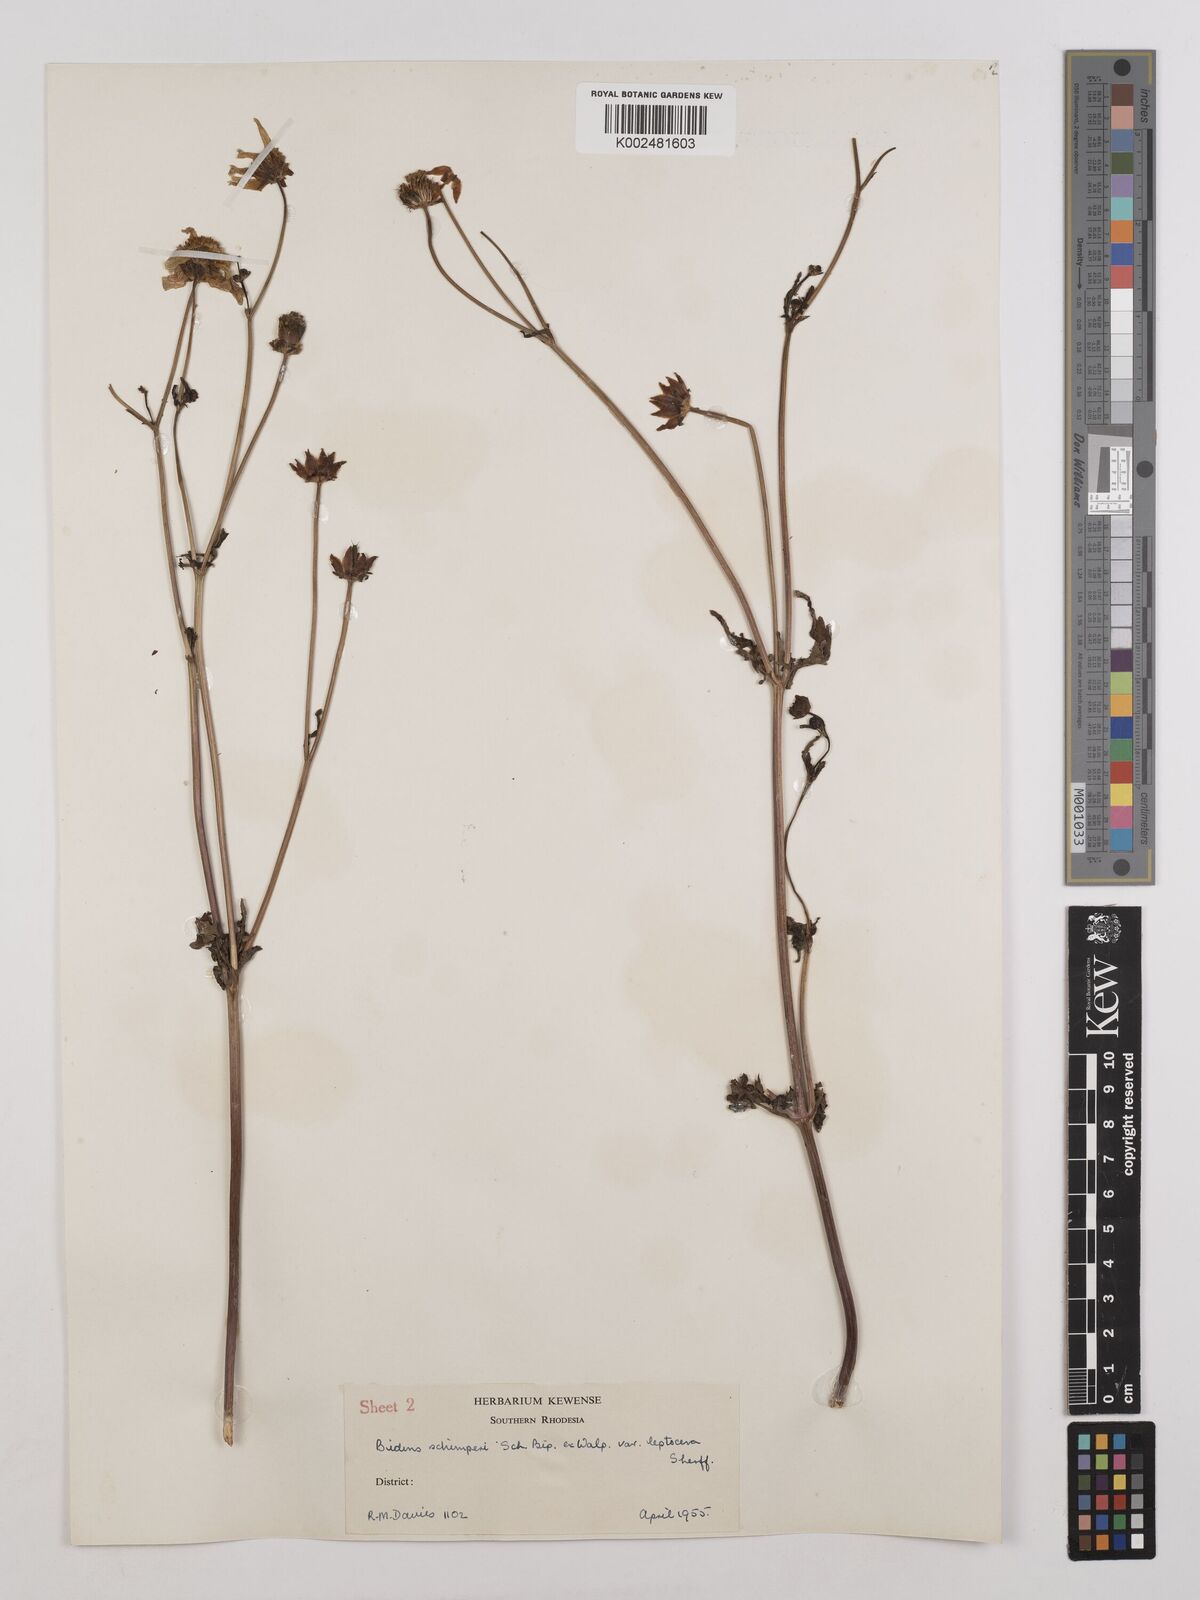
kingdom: Plantae
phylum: Tracheophyta
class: Magnoliopsida
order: Asterales
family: Asteraceae
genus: Bidens
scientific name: Bidens schimperi
